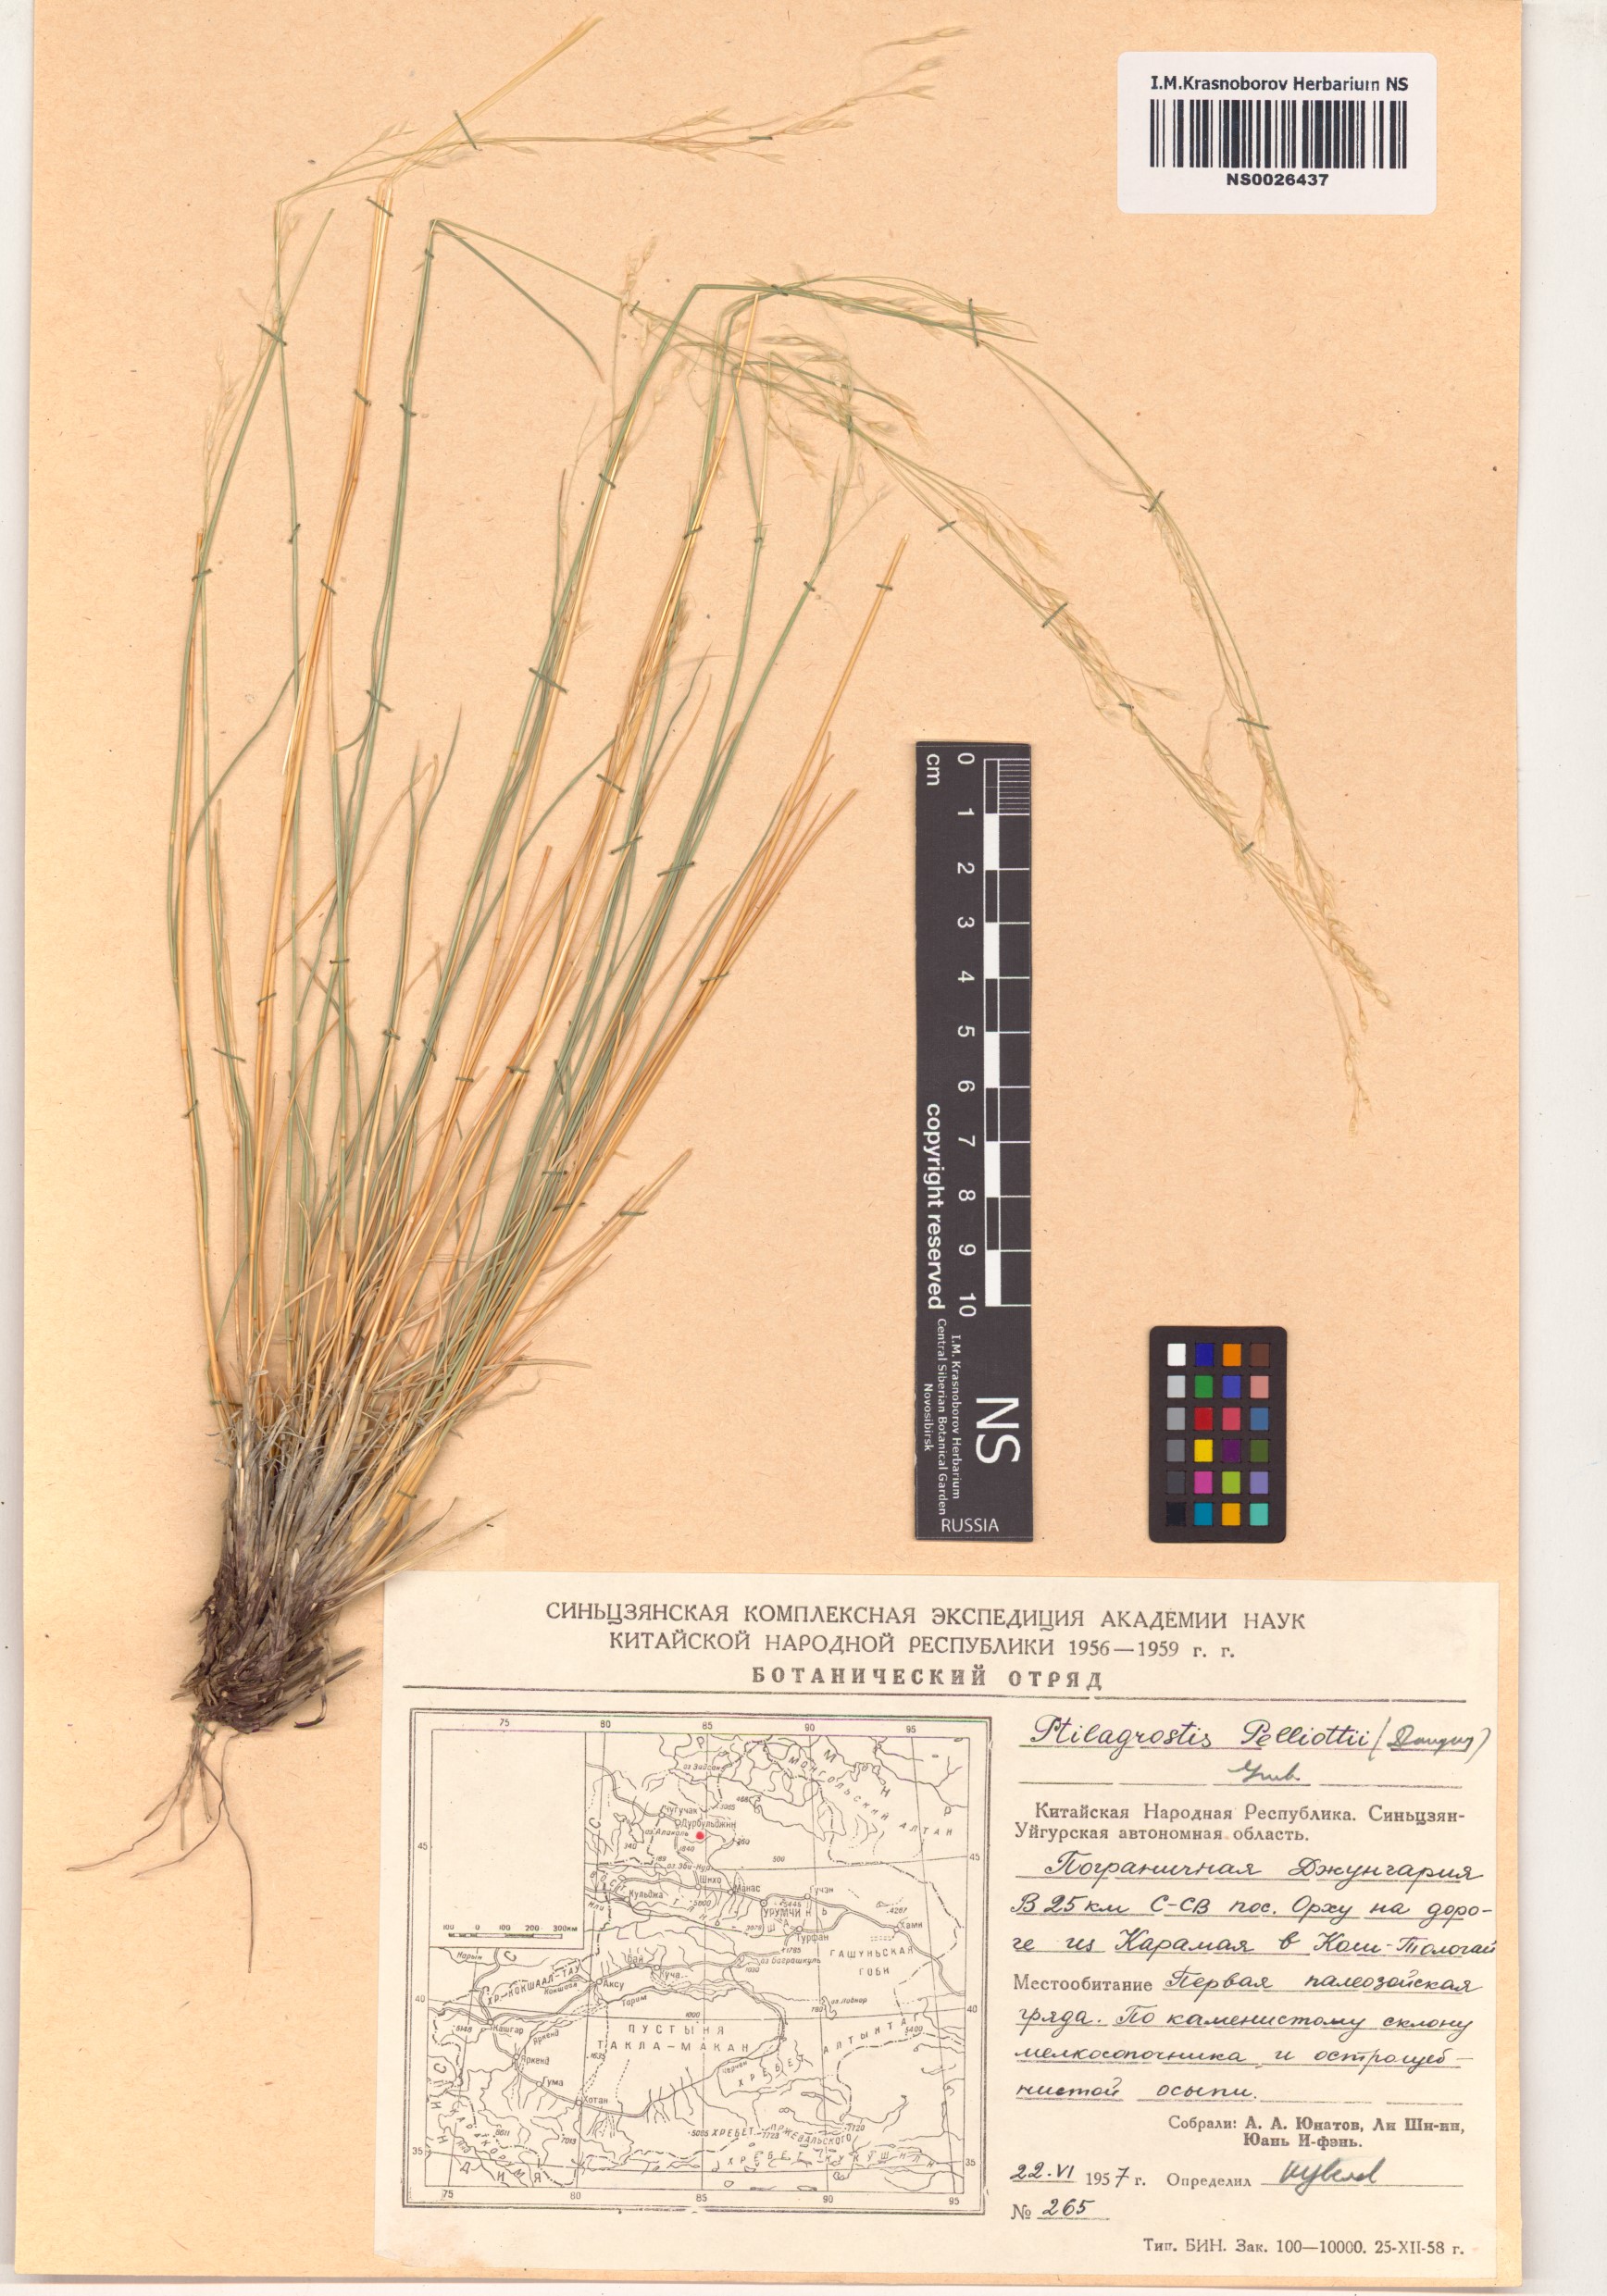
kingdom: Plantae
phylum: Tracheophyta
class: Liliopsida
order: Poales
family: Poaceae
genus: Achnatherum
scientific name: Achnatherum pelliotii
